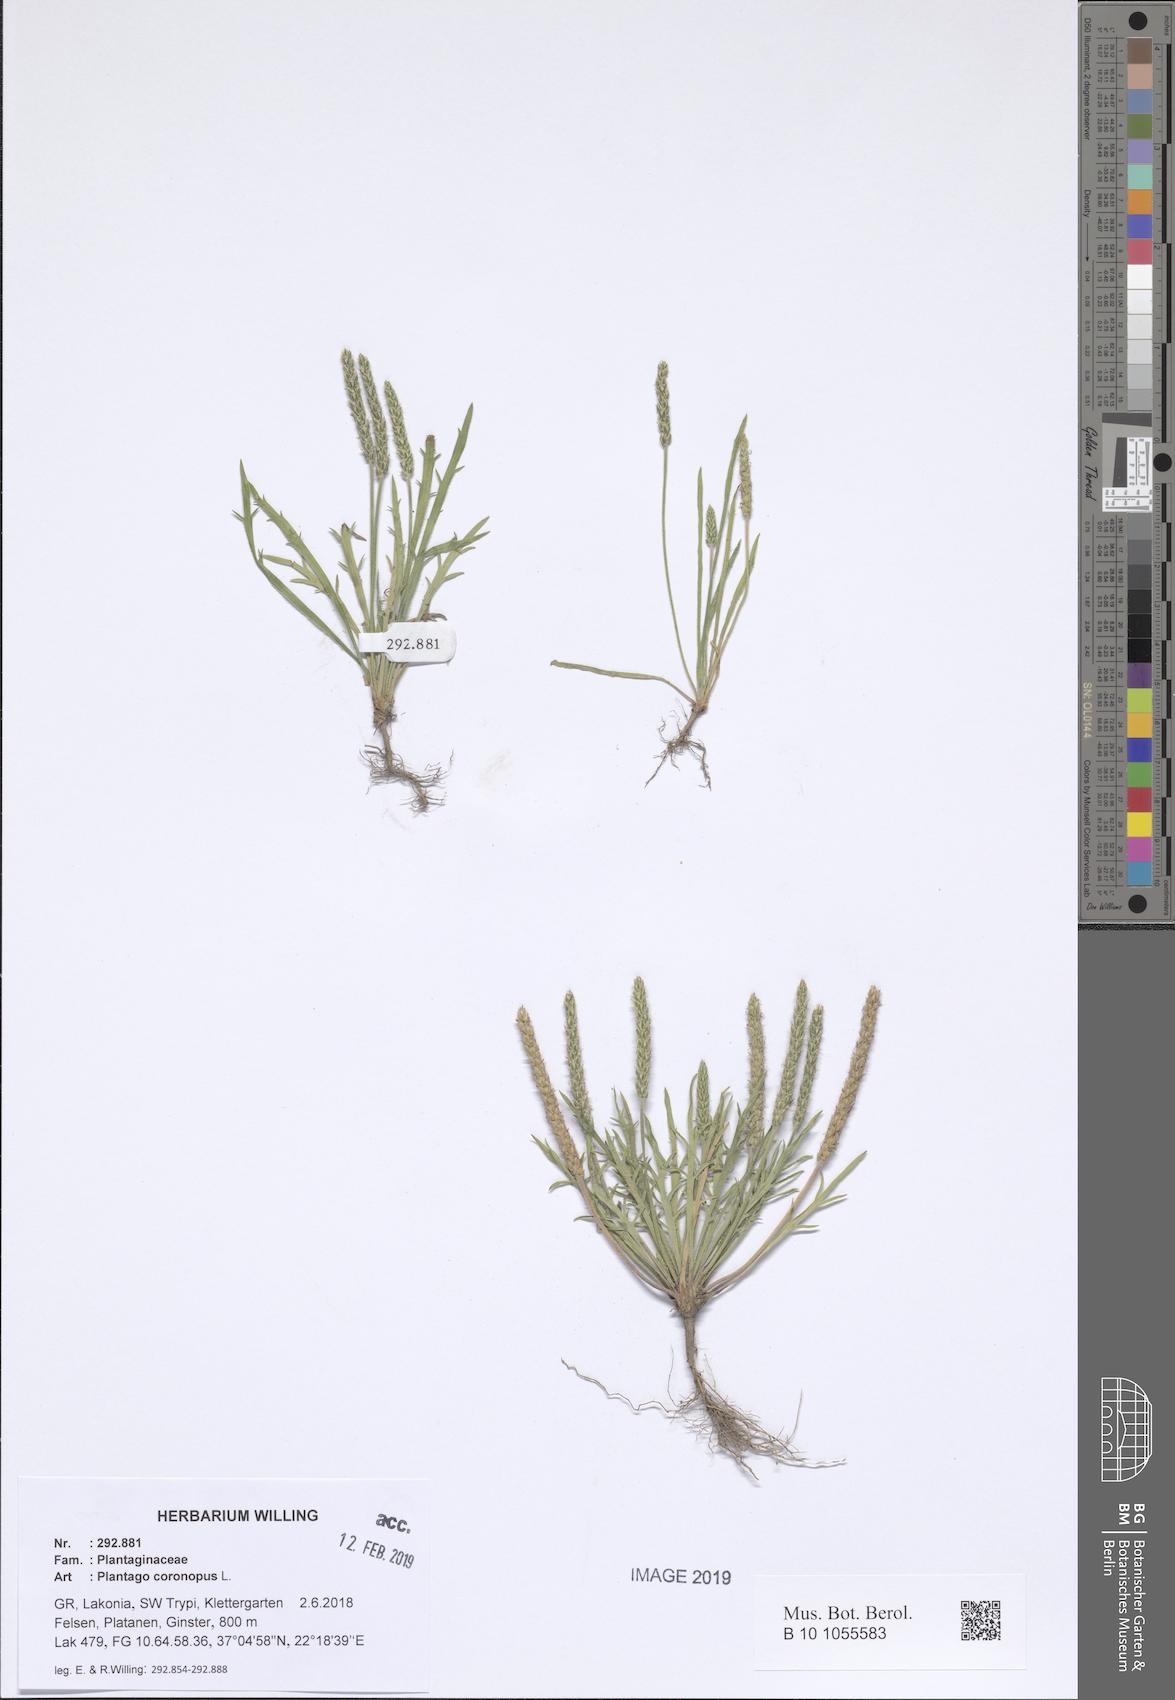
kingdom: Plantae
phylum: Tracheophyta
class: Magnoliopsida
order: Lamiales
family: Plantaginaceae
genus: Plantago
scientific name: Plantago coronopus
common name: Buck's-horn plantain
